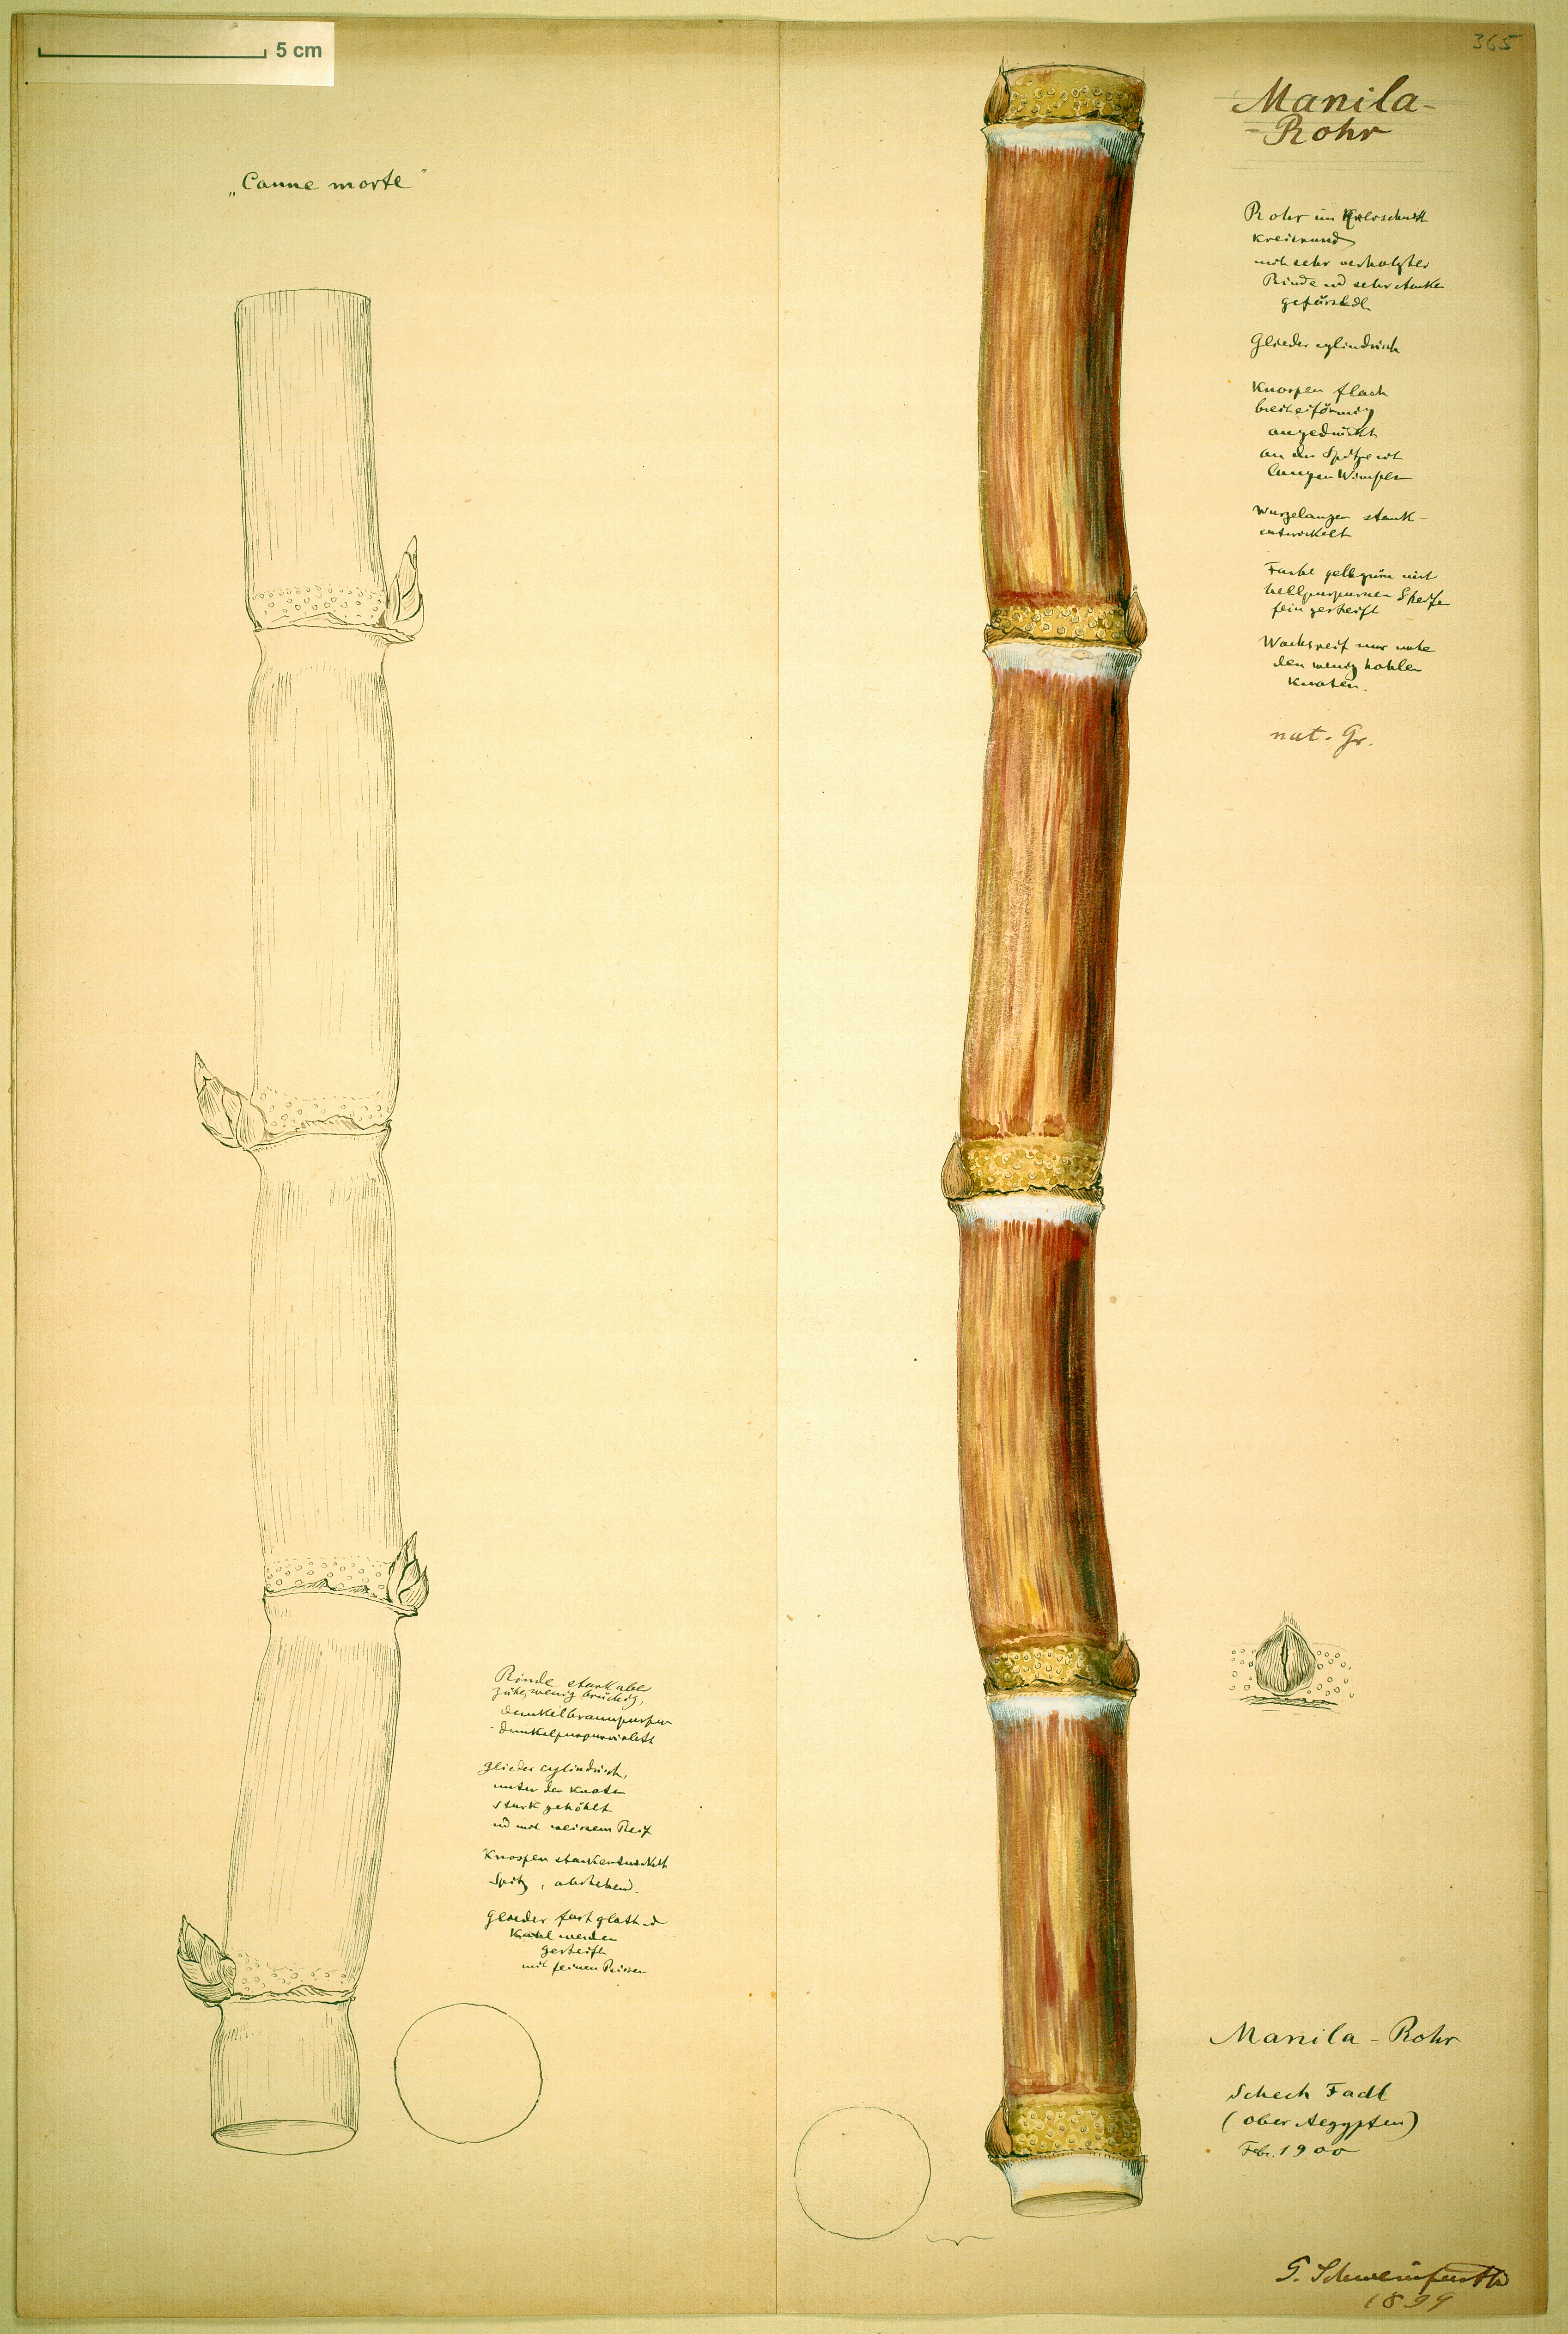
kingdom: Plantae
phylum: Tracheophyta
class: Liliopsida
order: Poales
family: Poaceae
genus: Saccharum
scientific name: Saccharum officinarum
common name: Sugarcane
